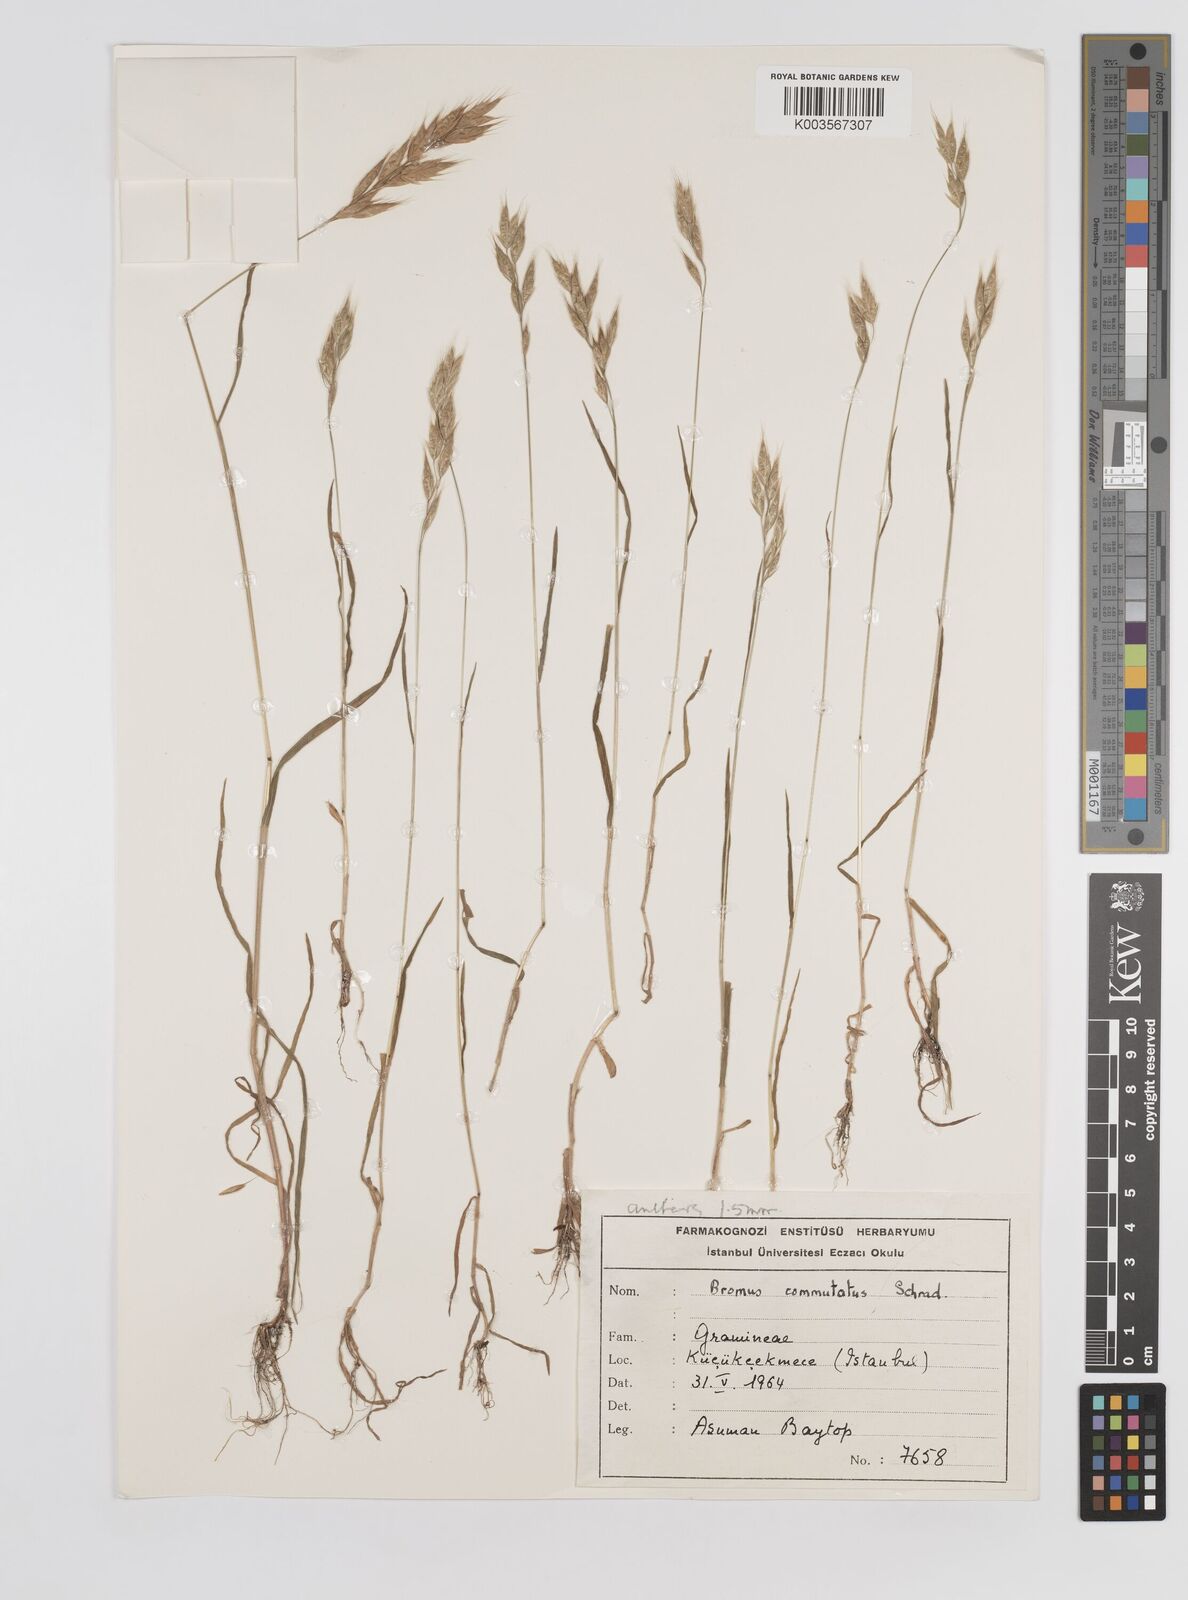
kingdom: Plantae
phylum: Tracheophyta
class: Liliopsida
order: Poales
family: Poaceae
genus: Bromus
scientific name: Bromus racemosus
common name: Bald brome
